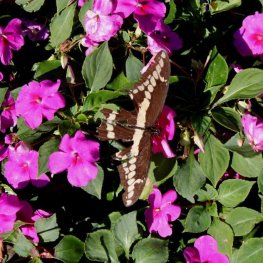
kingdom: Animalia
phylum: Arthropoda
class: Insecta
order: Lepidoptera
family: Papilionidae
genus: Papilio
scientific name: Papilio cresphontes
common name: Eastern Giant Swallowtail
